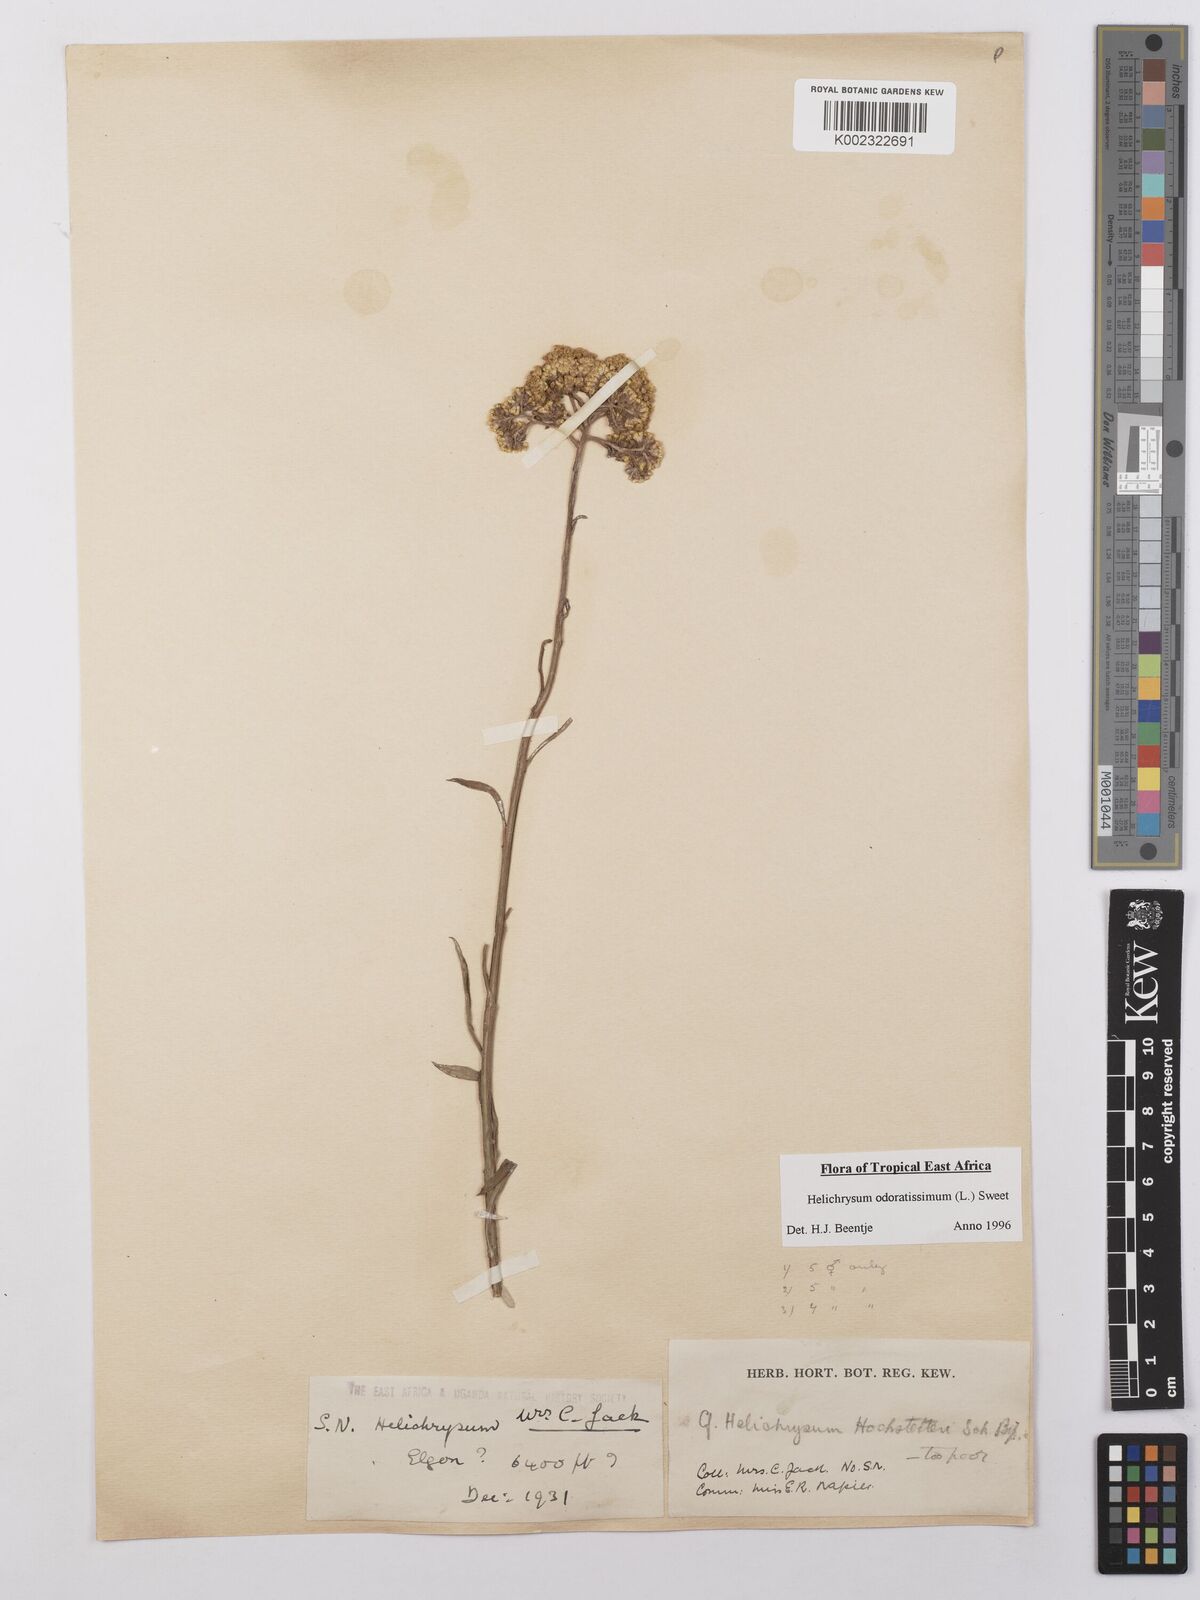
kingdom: Plantae
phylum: Tracheophyta
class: Magnoliopsida
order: Asterales
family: Asteraceae
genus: Helichrysum
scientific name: Helichrysum odoratissimum
